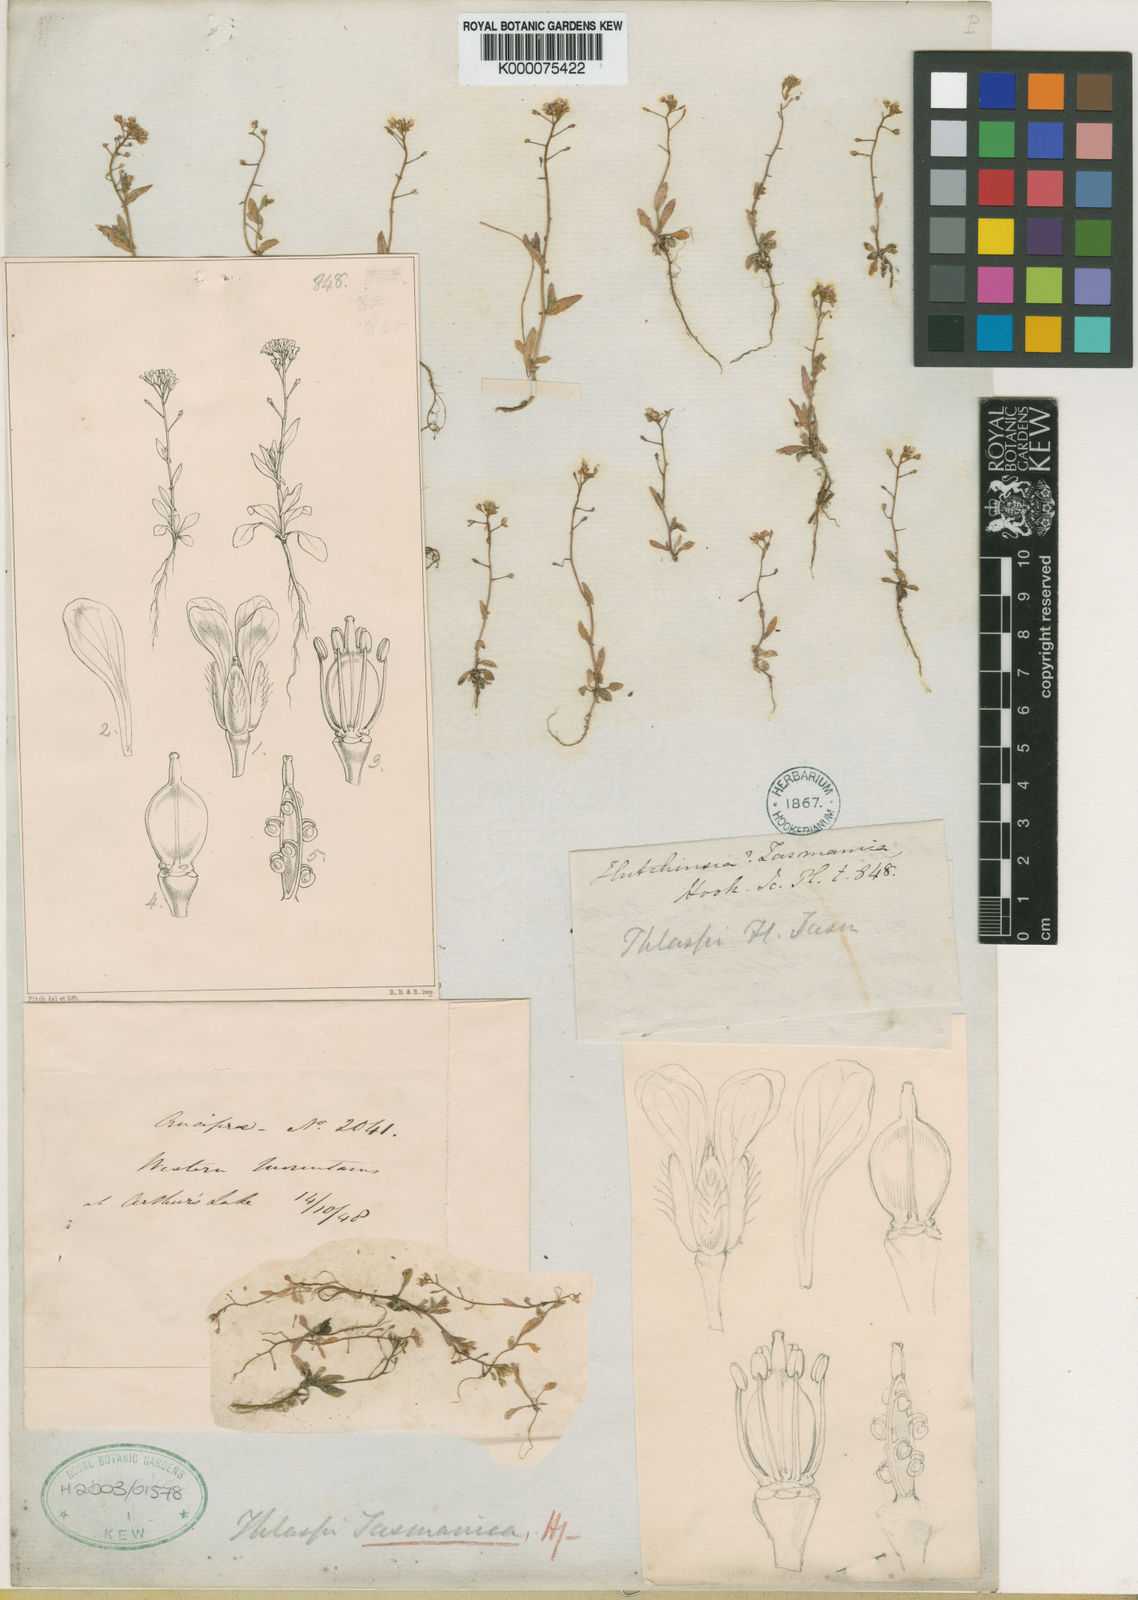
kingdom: Plantae
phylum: Tracheophyta
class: Magnoliopsida
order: Brassicales
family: Brassicaceae
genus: Capsella
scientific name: Capsella tasmanica
